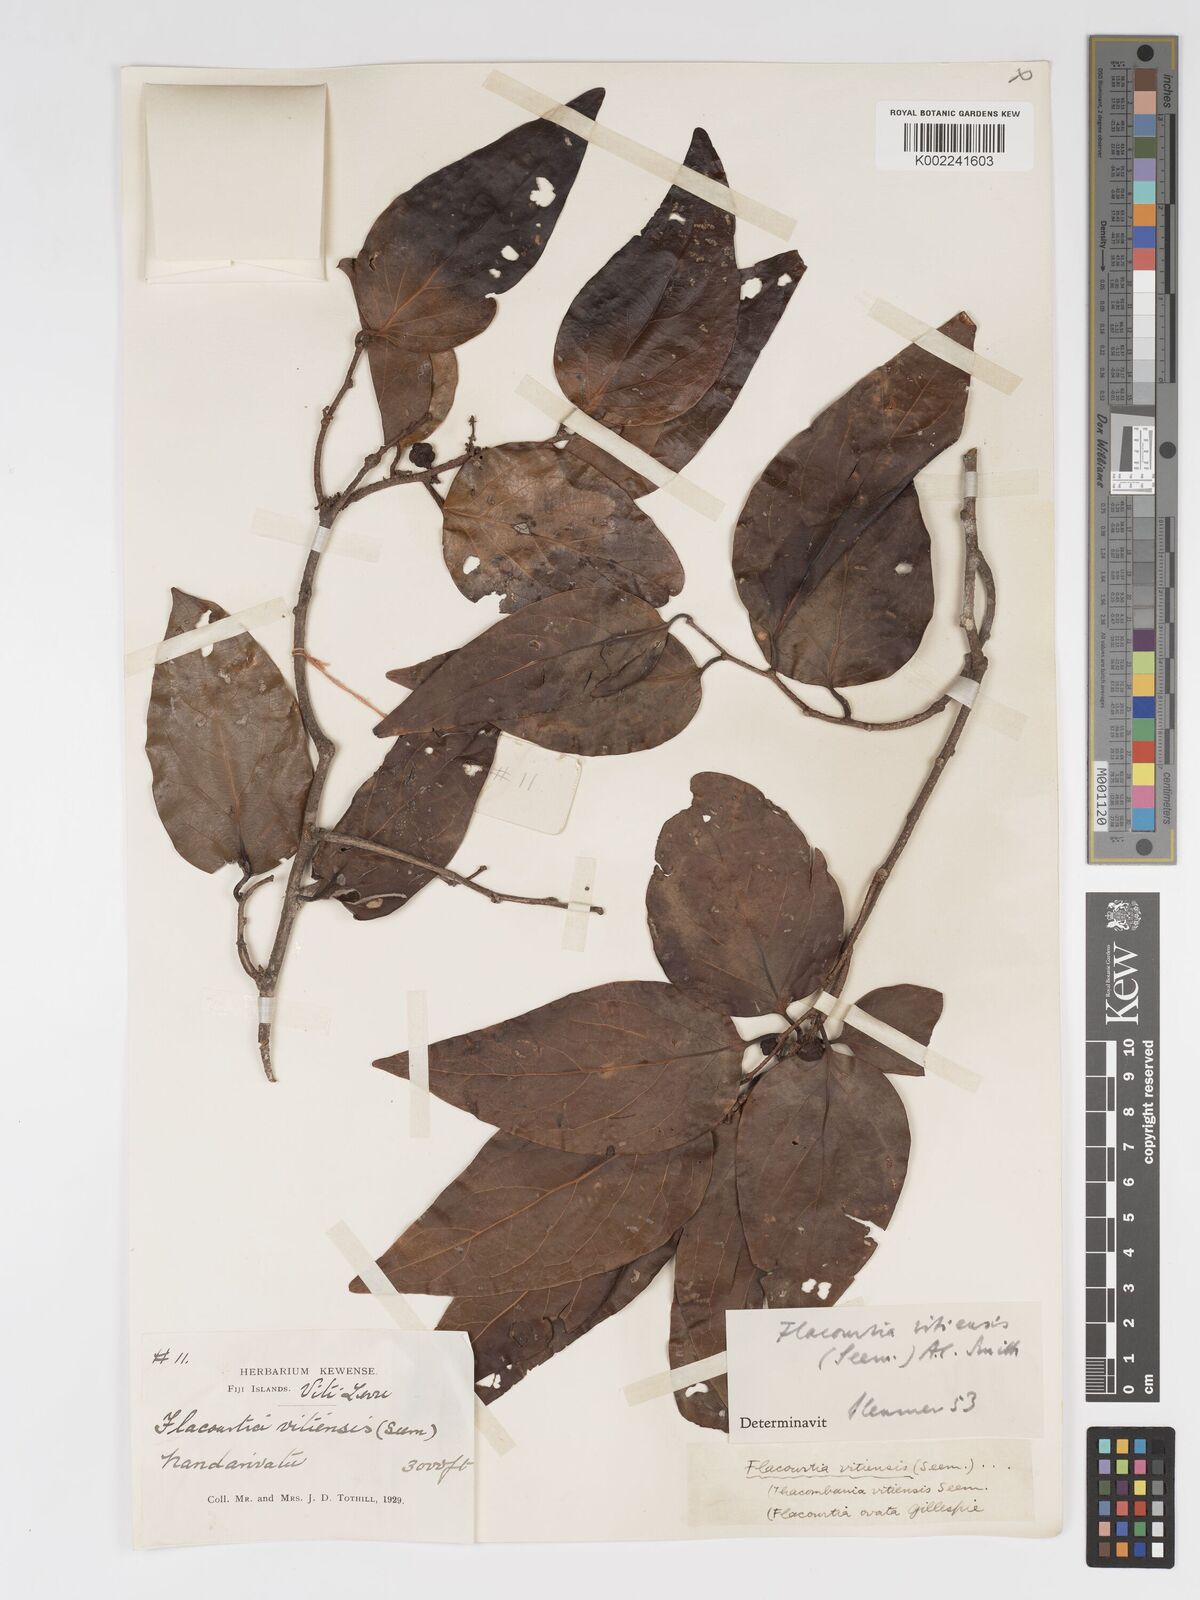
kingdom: Plantae
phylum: Tracheophyta
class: Magnoliopsida
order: Malpighiales
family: Salicaceae
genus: Flacourtia
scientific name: Flacourtia vitiensis
